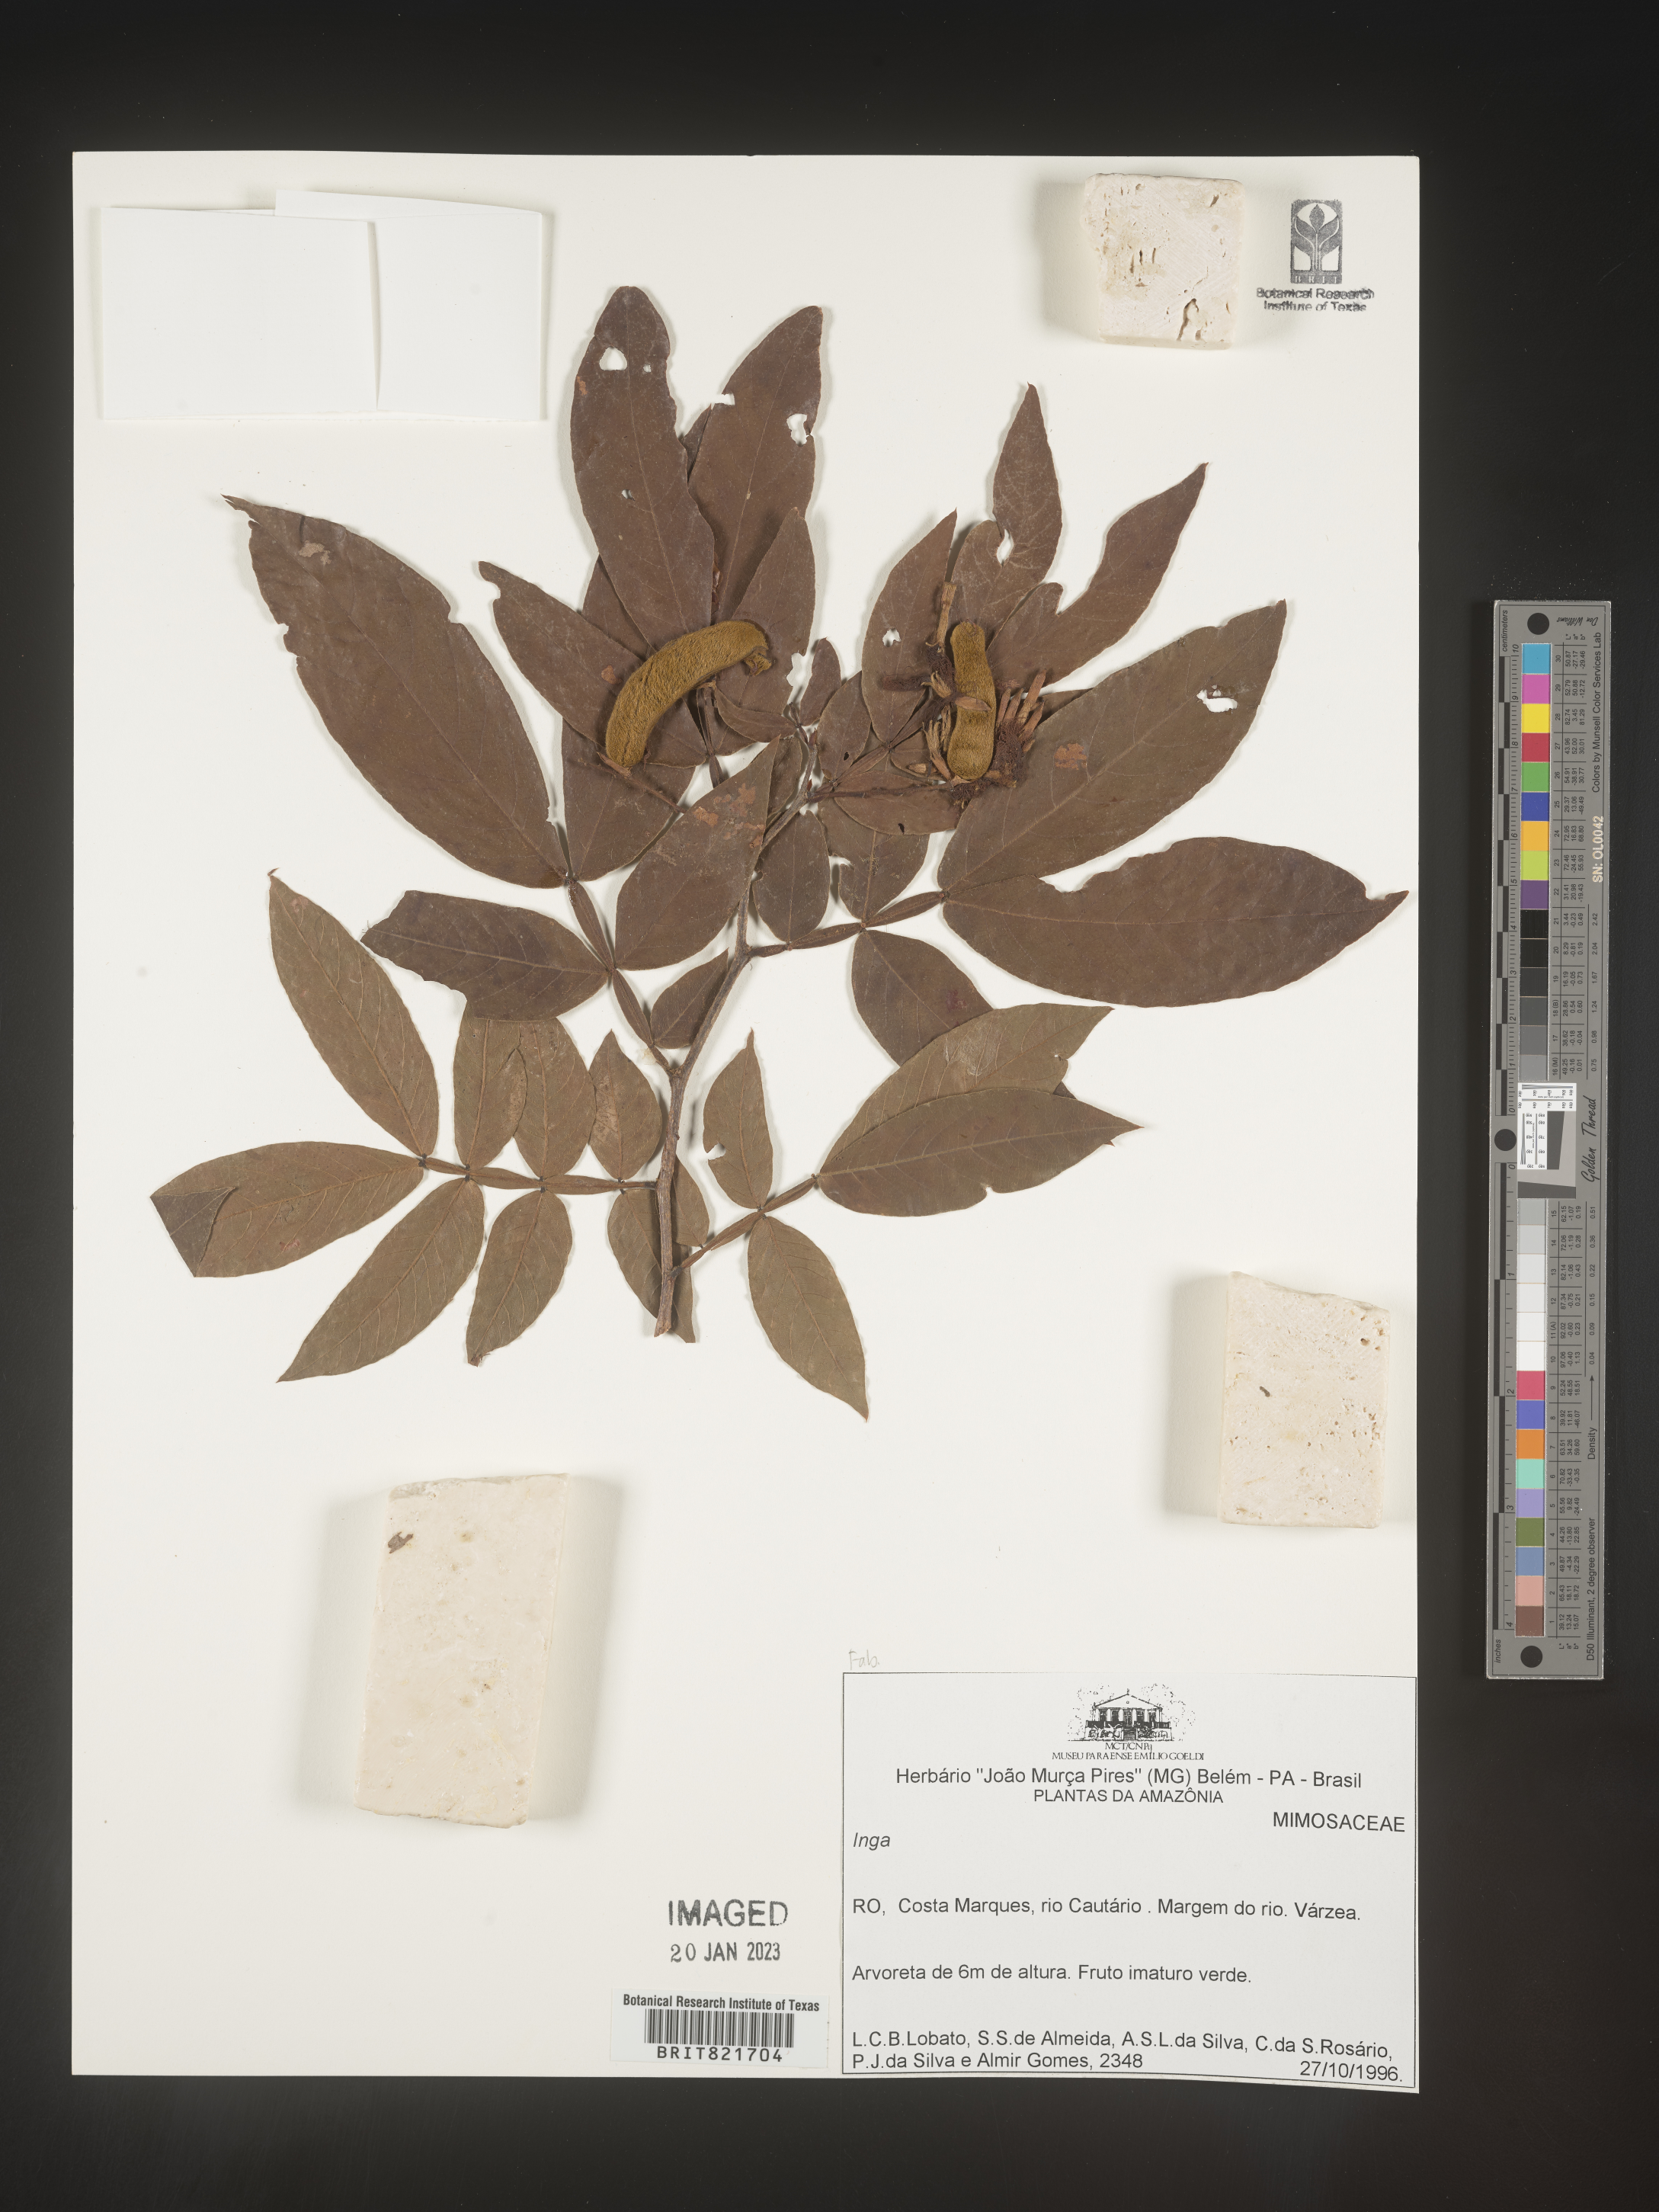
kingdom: Plantae
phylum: Tracheophyta
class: Magnoliopsida
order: Fabales
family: Fabaceae
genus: Inga
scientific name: Inga
